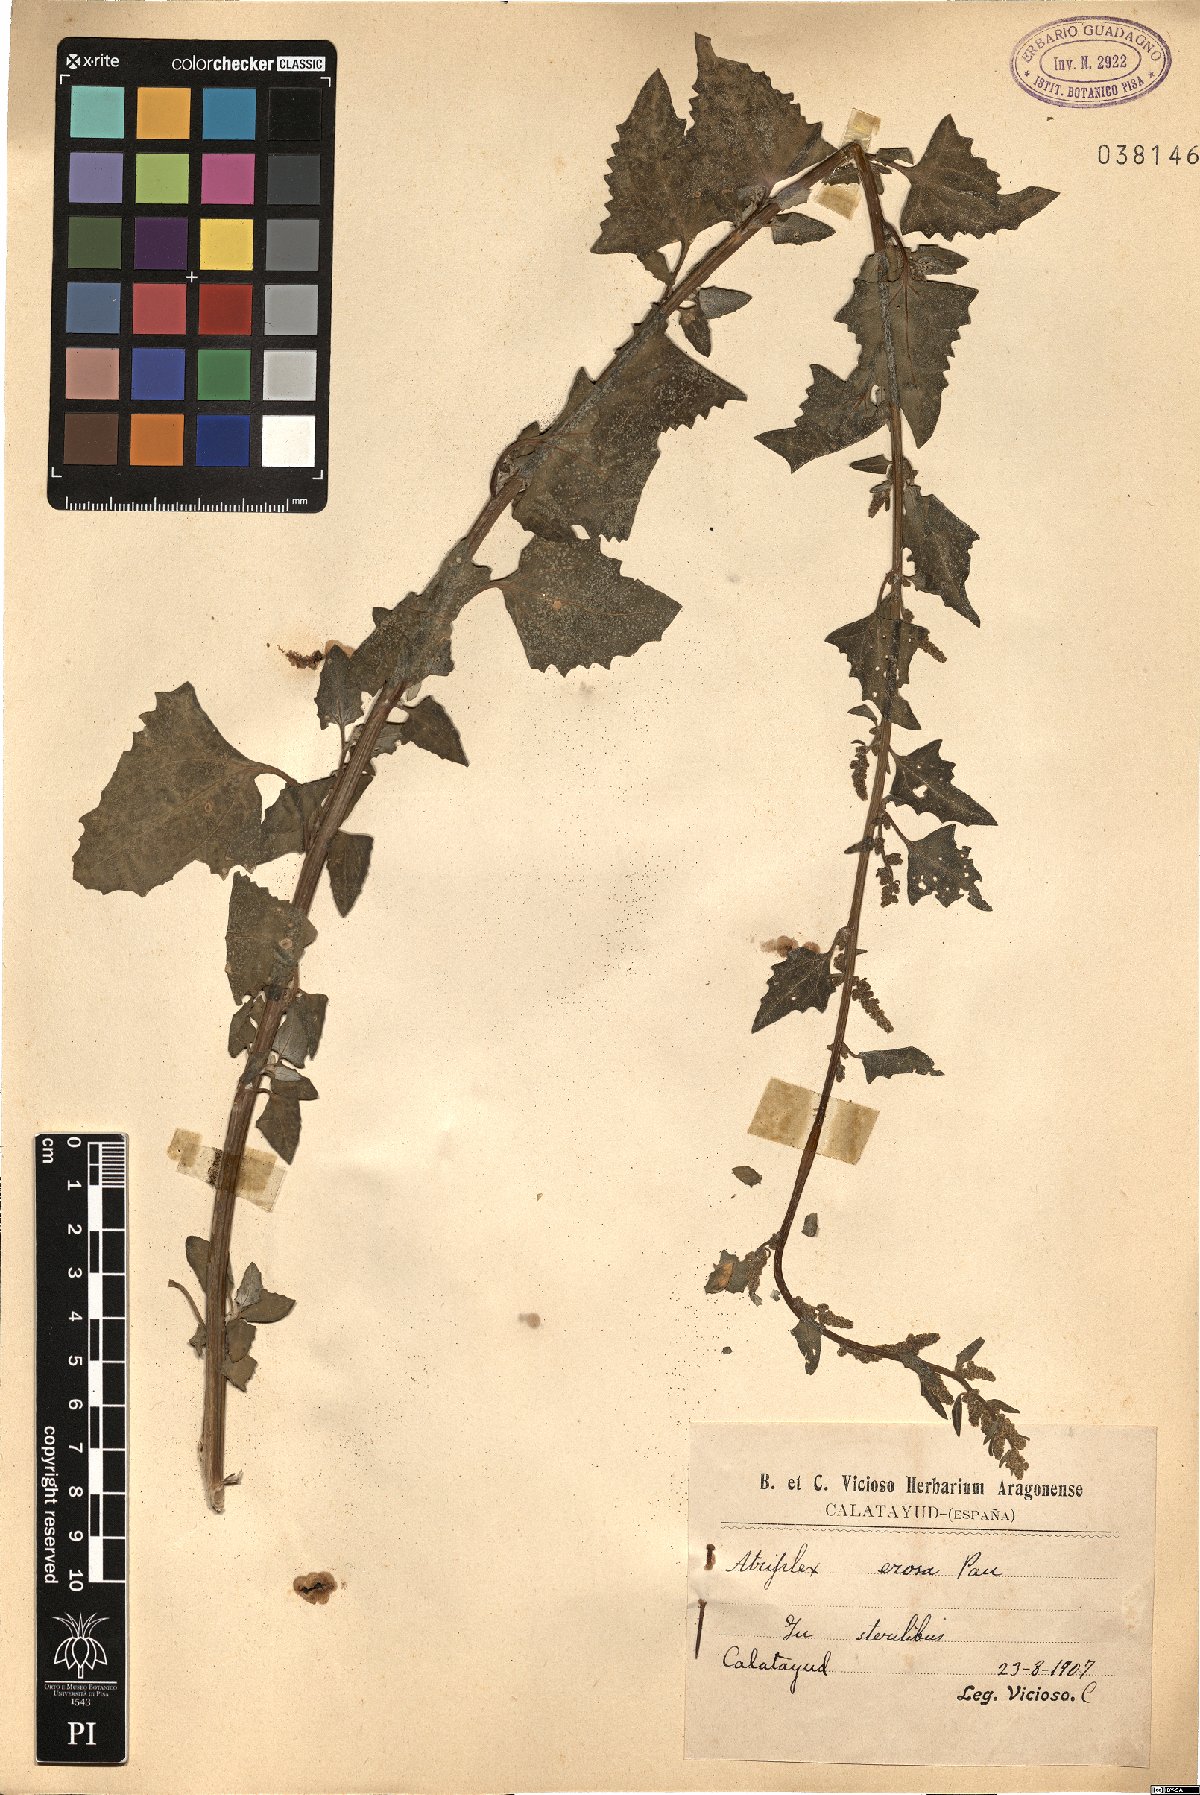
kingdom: Plantae
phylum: Tracheophyta
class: Magnoliopsida
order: Caryophyllales
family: Amaranthaceae
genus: Atriplex
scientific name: Atriplex erosa
